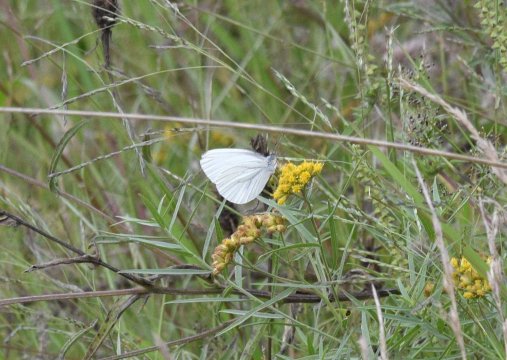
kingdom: Animalia
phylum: Arthropoda
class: Insecta
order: Lepidoptera
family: Pieridae
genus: Pieris
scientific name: Pieris oleracea
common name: Mustard White
